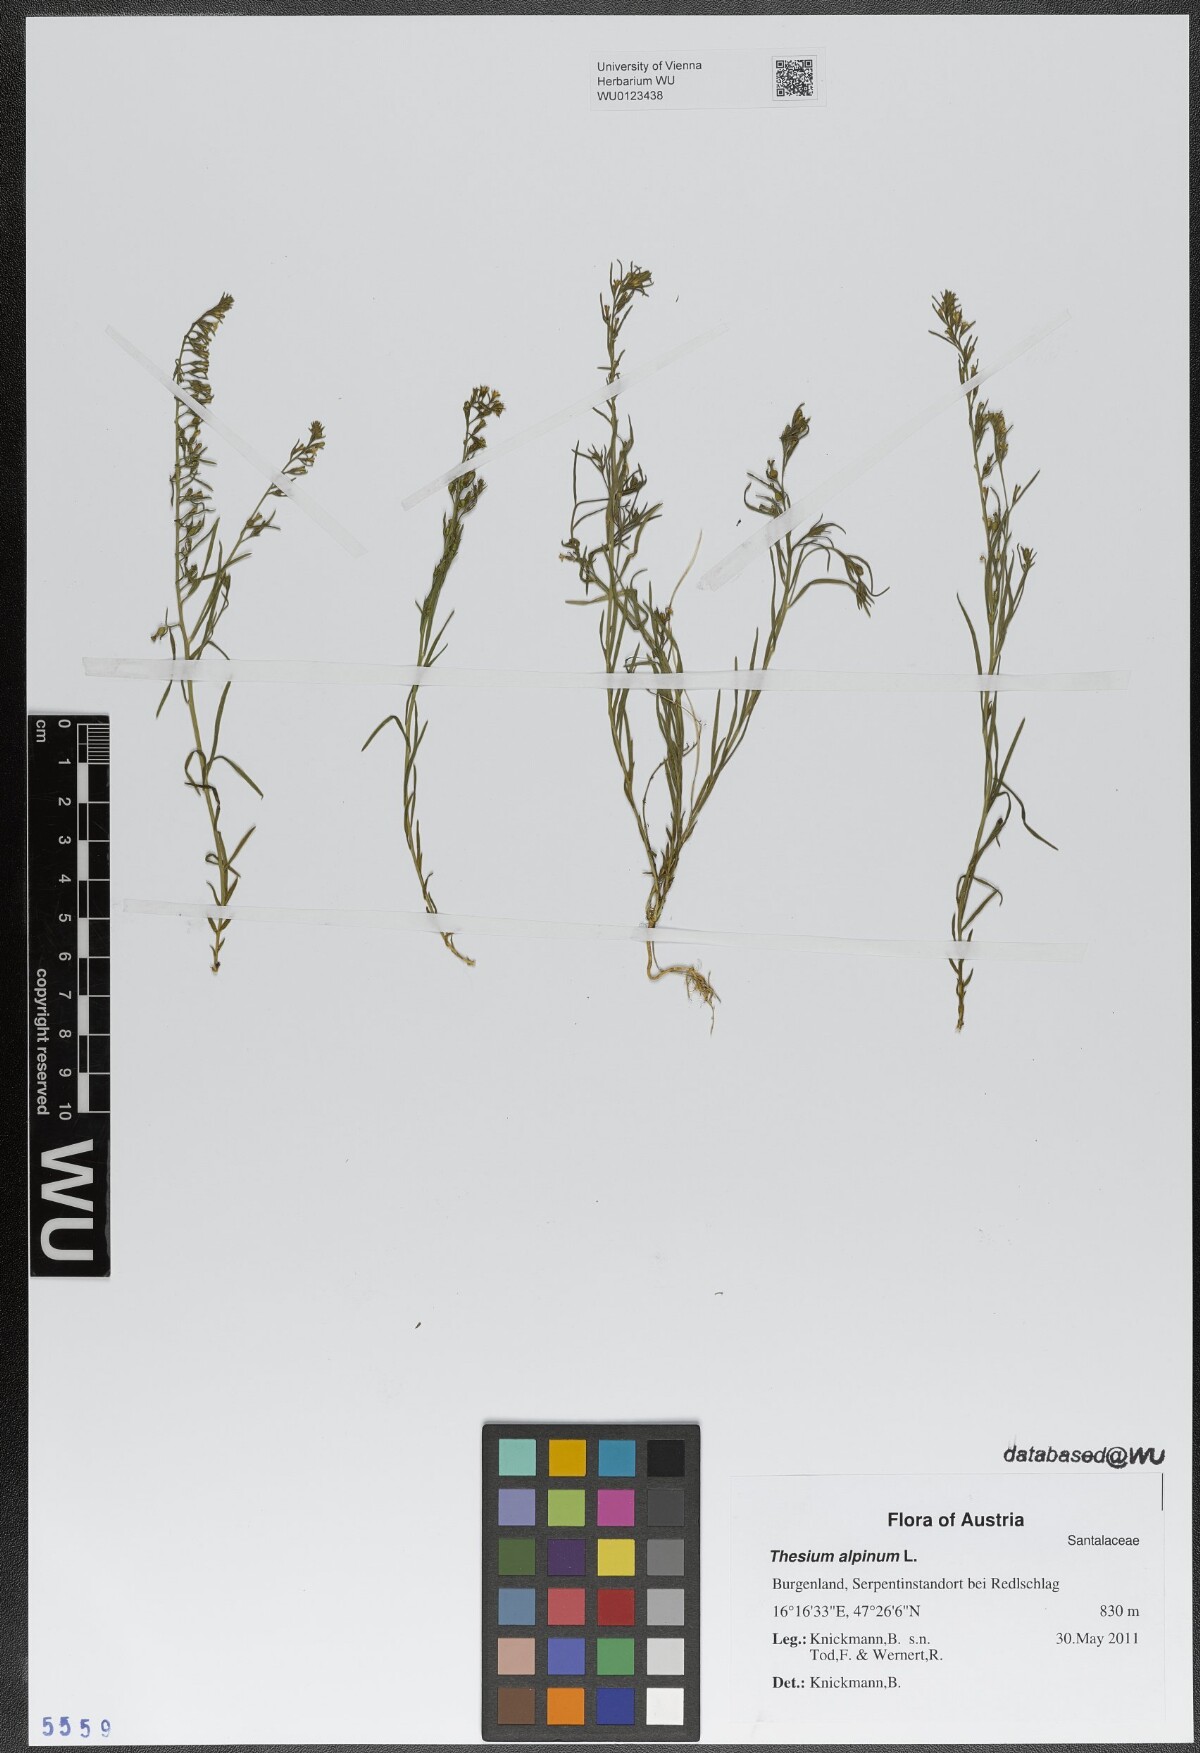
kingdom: Plantae
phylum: Tracheophyta
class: Magnoliopsida
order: Santalales
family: Thesiaceae
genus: Thesium
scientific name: Thesium alpinum
